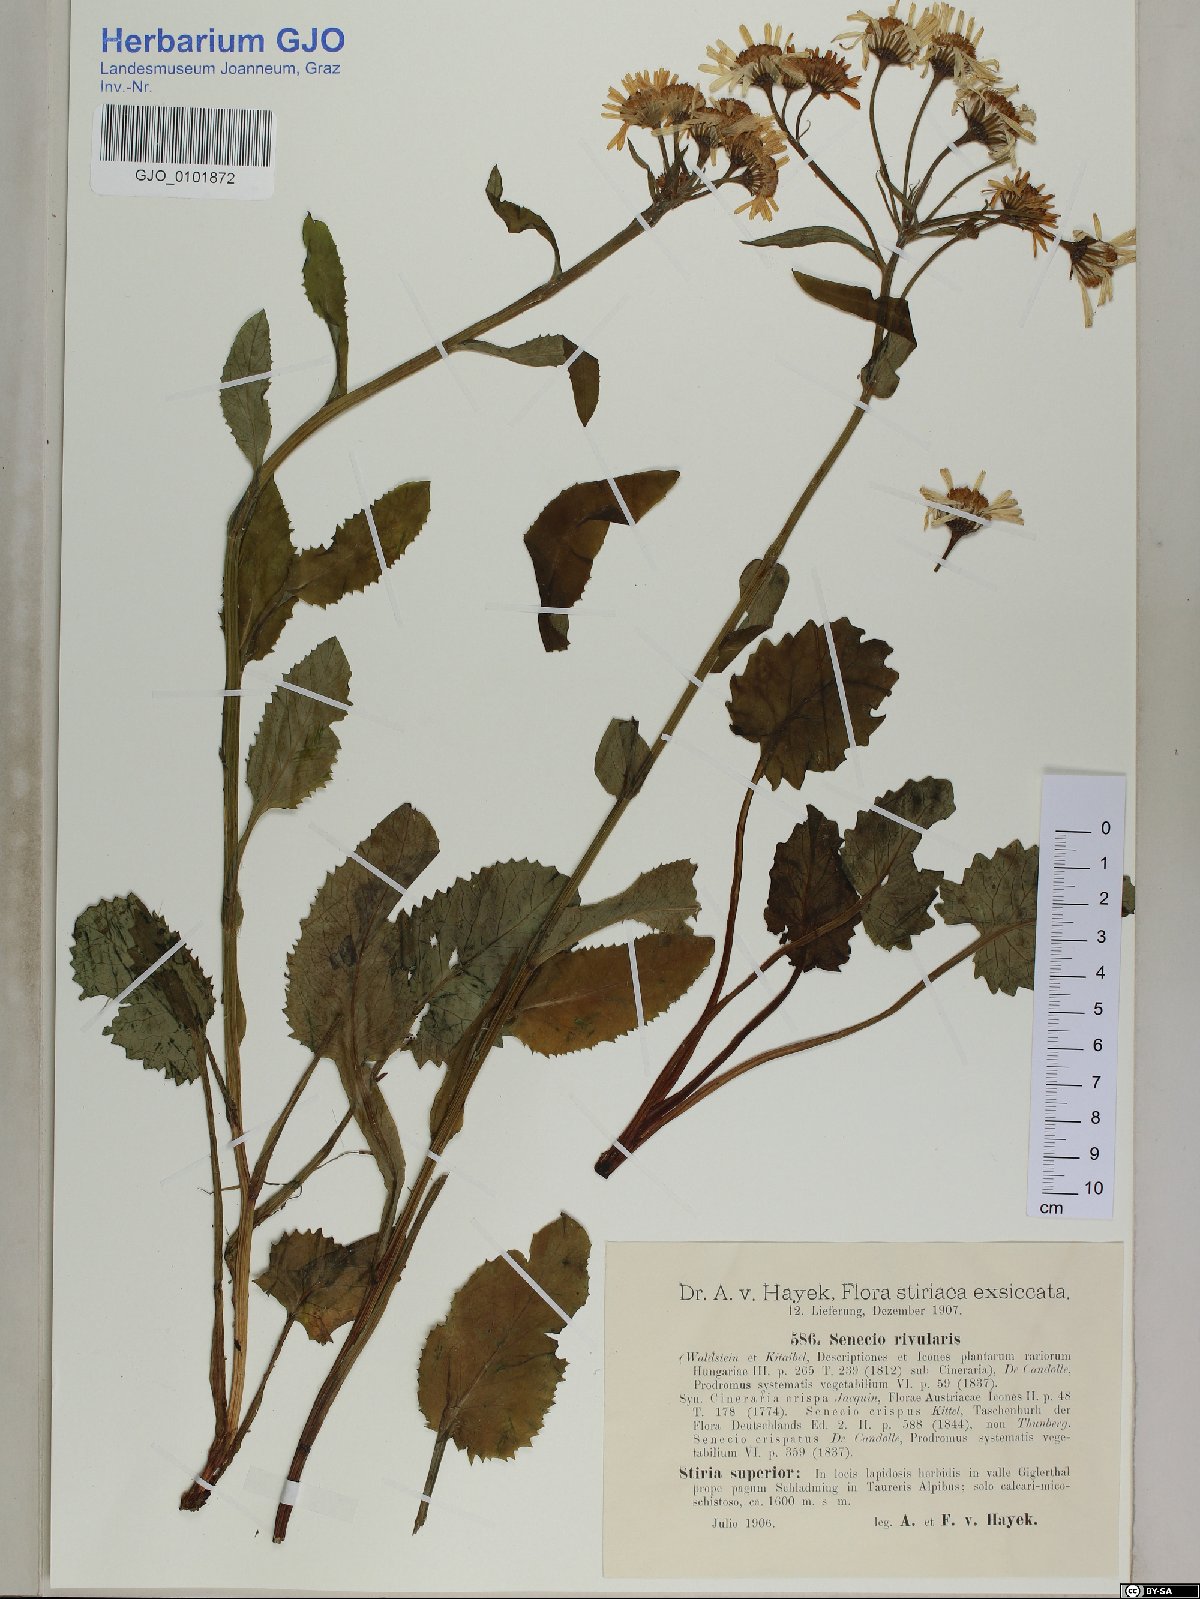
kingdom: Plantae
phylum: Tracheophyta
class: Magnoliopsida
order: Asterales
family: Asteraceae
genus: Tephroseris
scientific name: Tephroseris crispa
